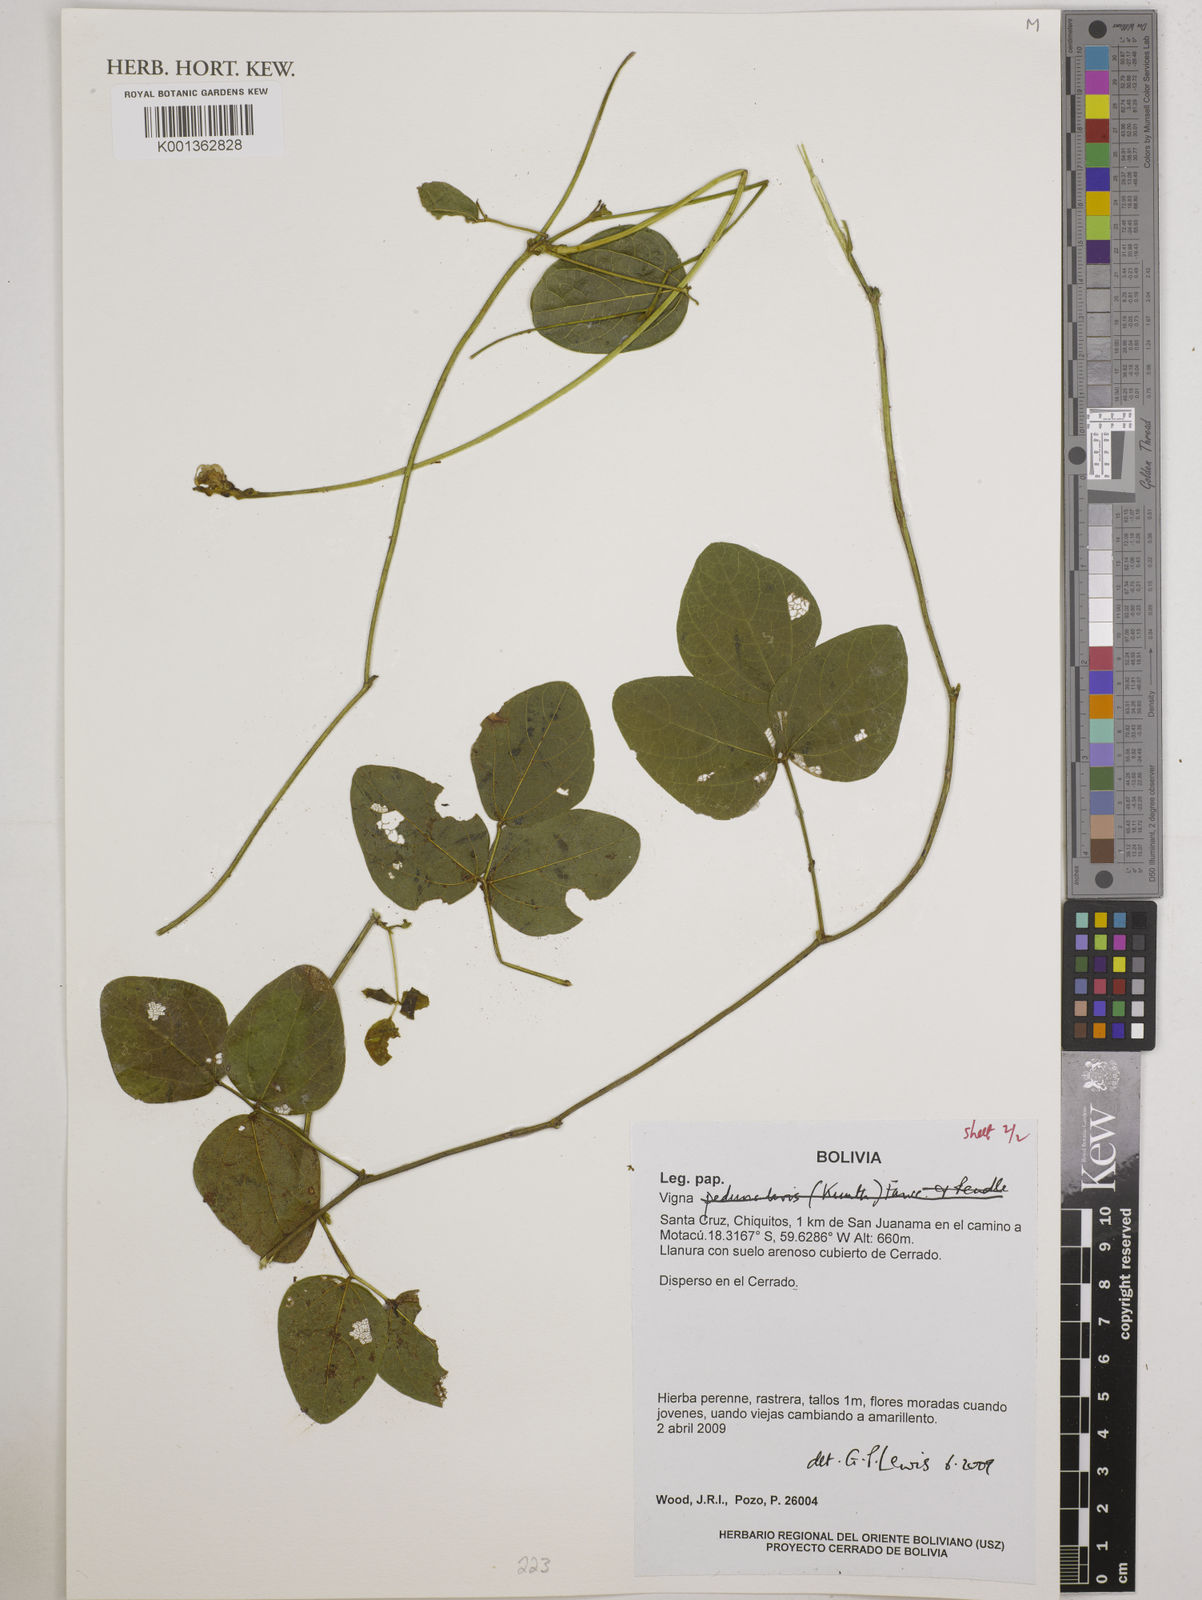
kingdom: Plantae
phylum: Tracheophyta
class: Magnoliopsida
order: Fabales
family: Fabaceae
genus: Vigna
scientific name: Vigna
